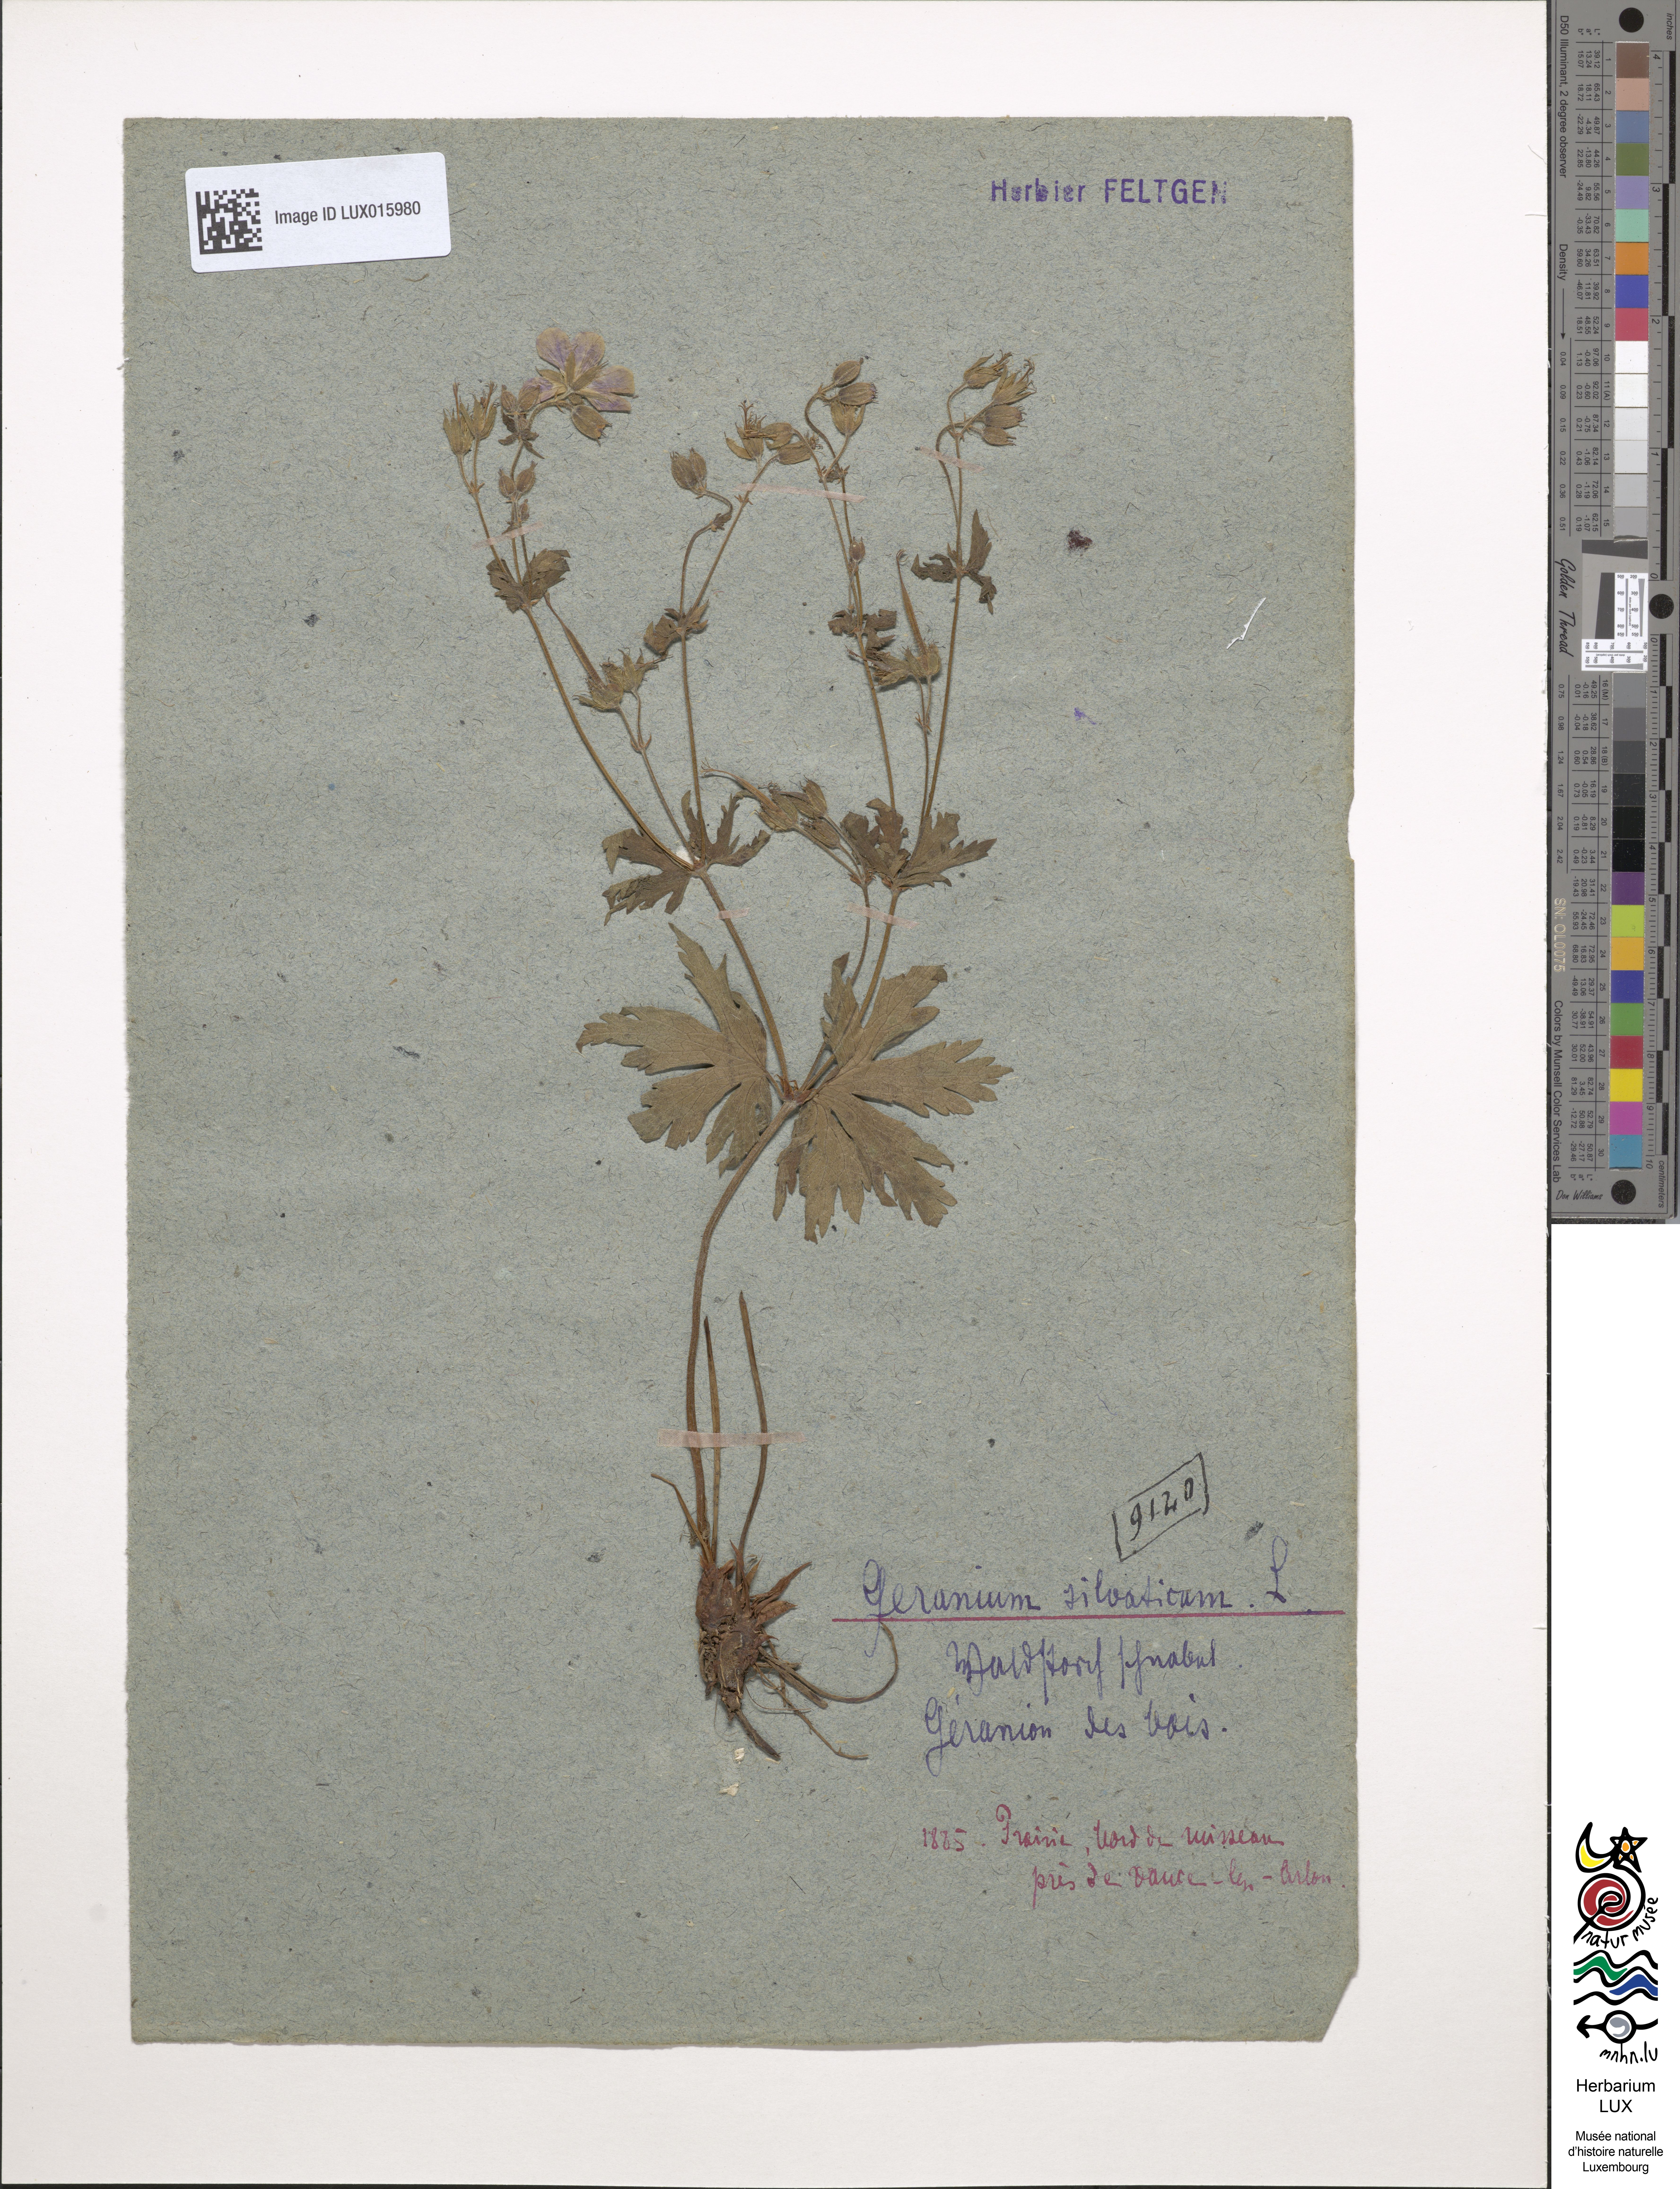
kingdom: Plantae
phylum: Tracheophyta
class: Magnoliopsida
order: Geraniales
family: Geraniaceae
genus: Geranium
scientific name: Geranium sylvaticum
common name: Wood crane's-bill
